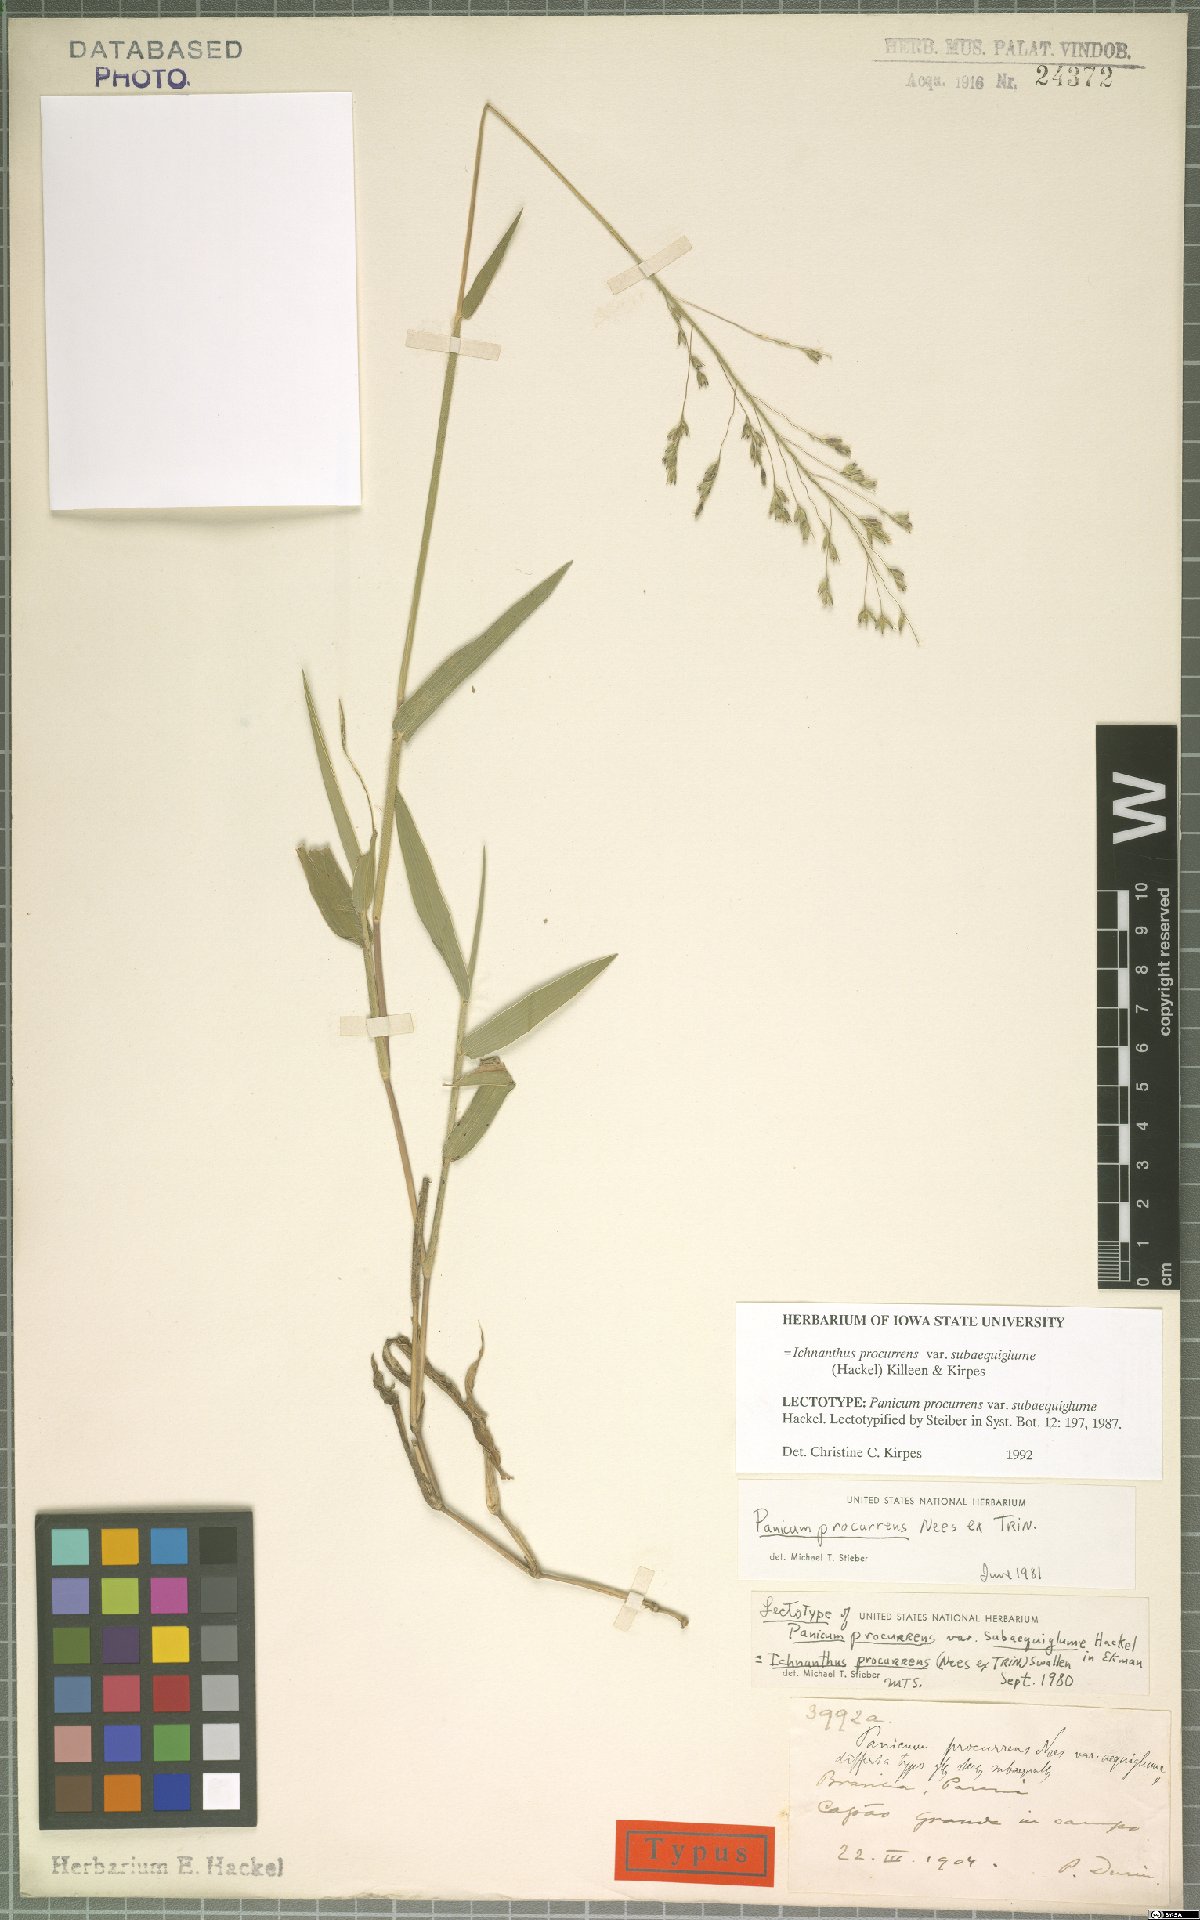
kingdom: Plantae
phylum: Tracheophyta
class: Liliopsida
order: Poales
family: Poaceae
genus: Oedochloa
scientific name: Oedochloa procurrens
